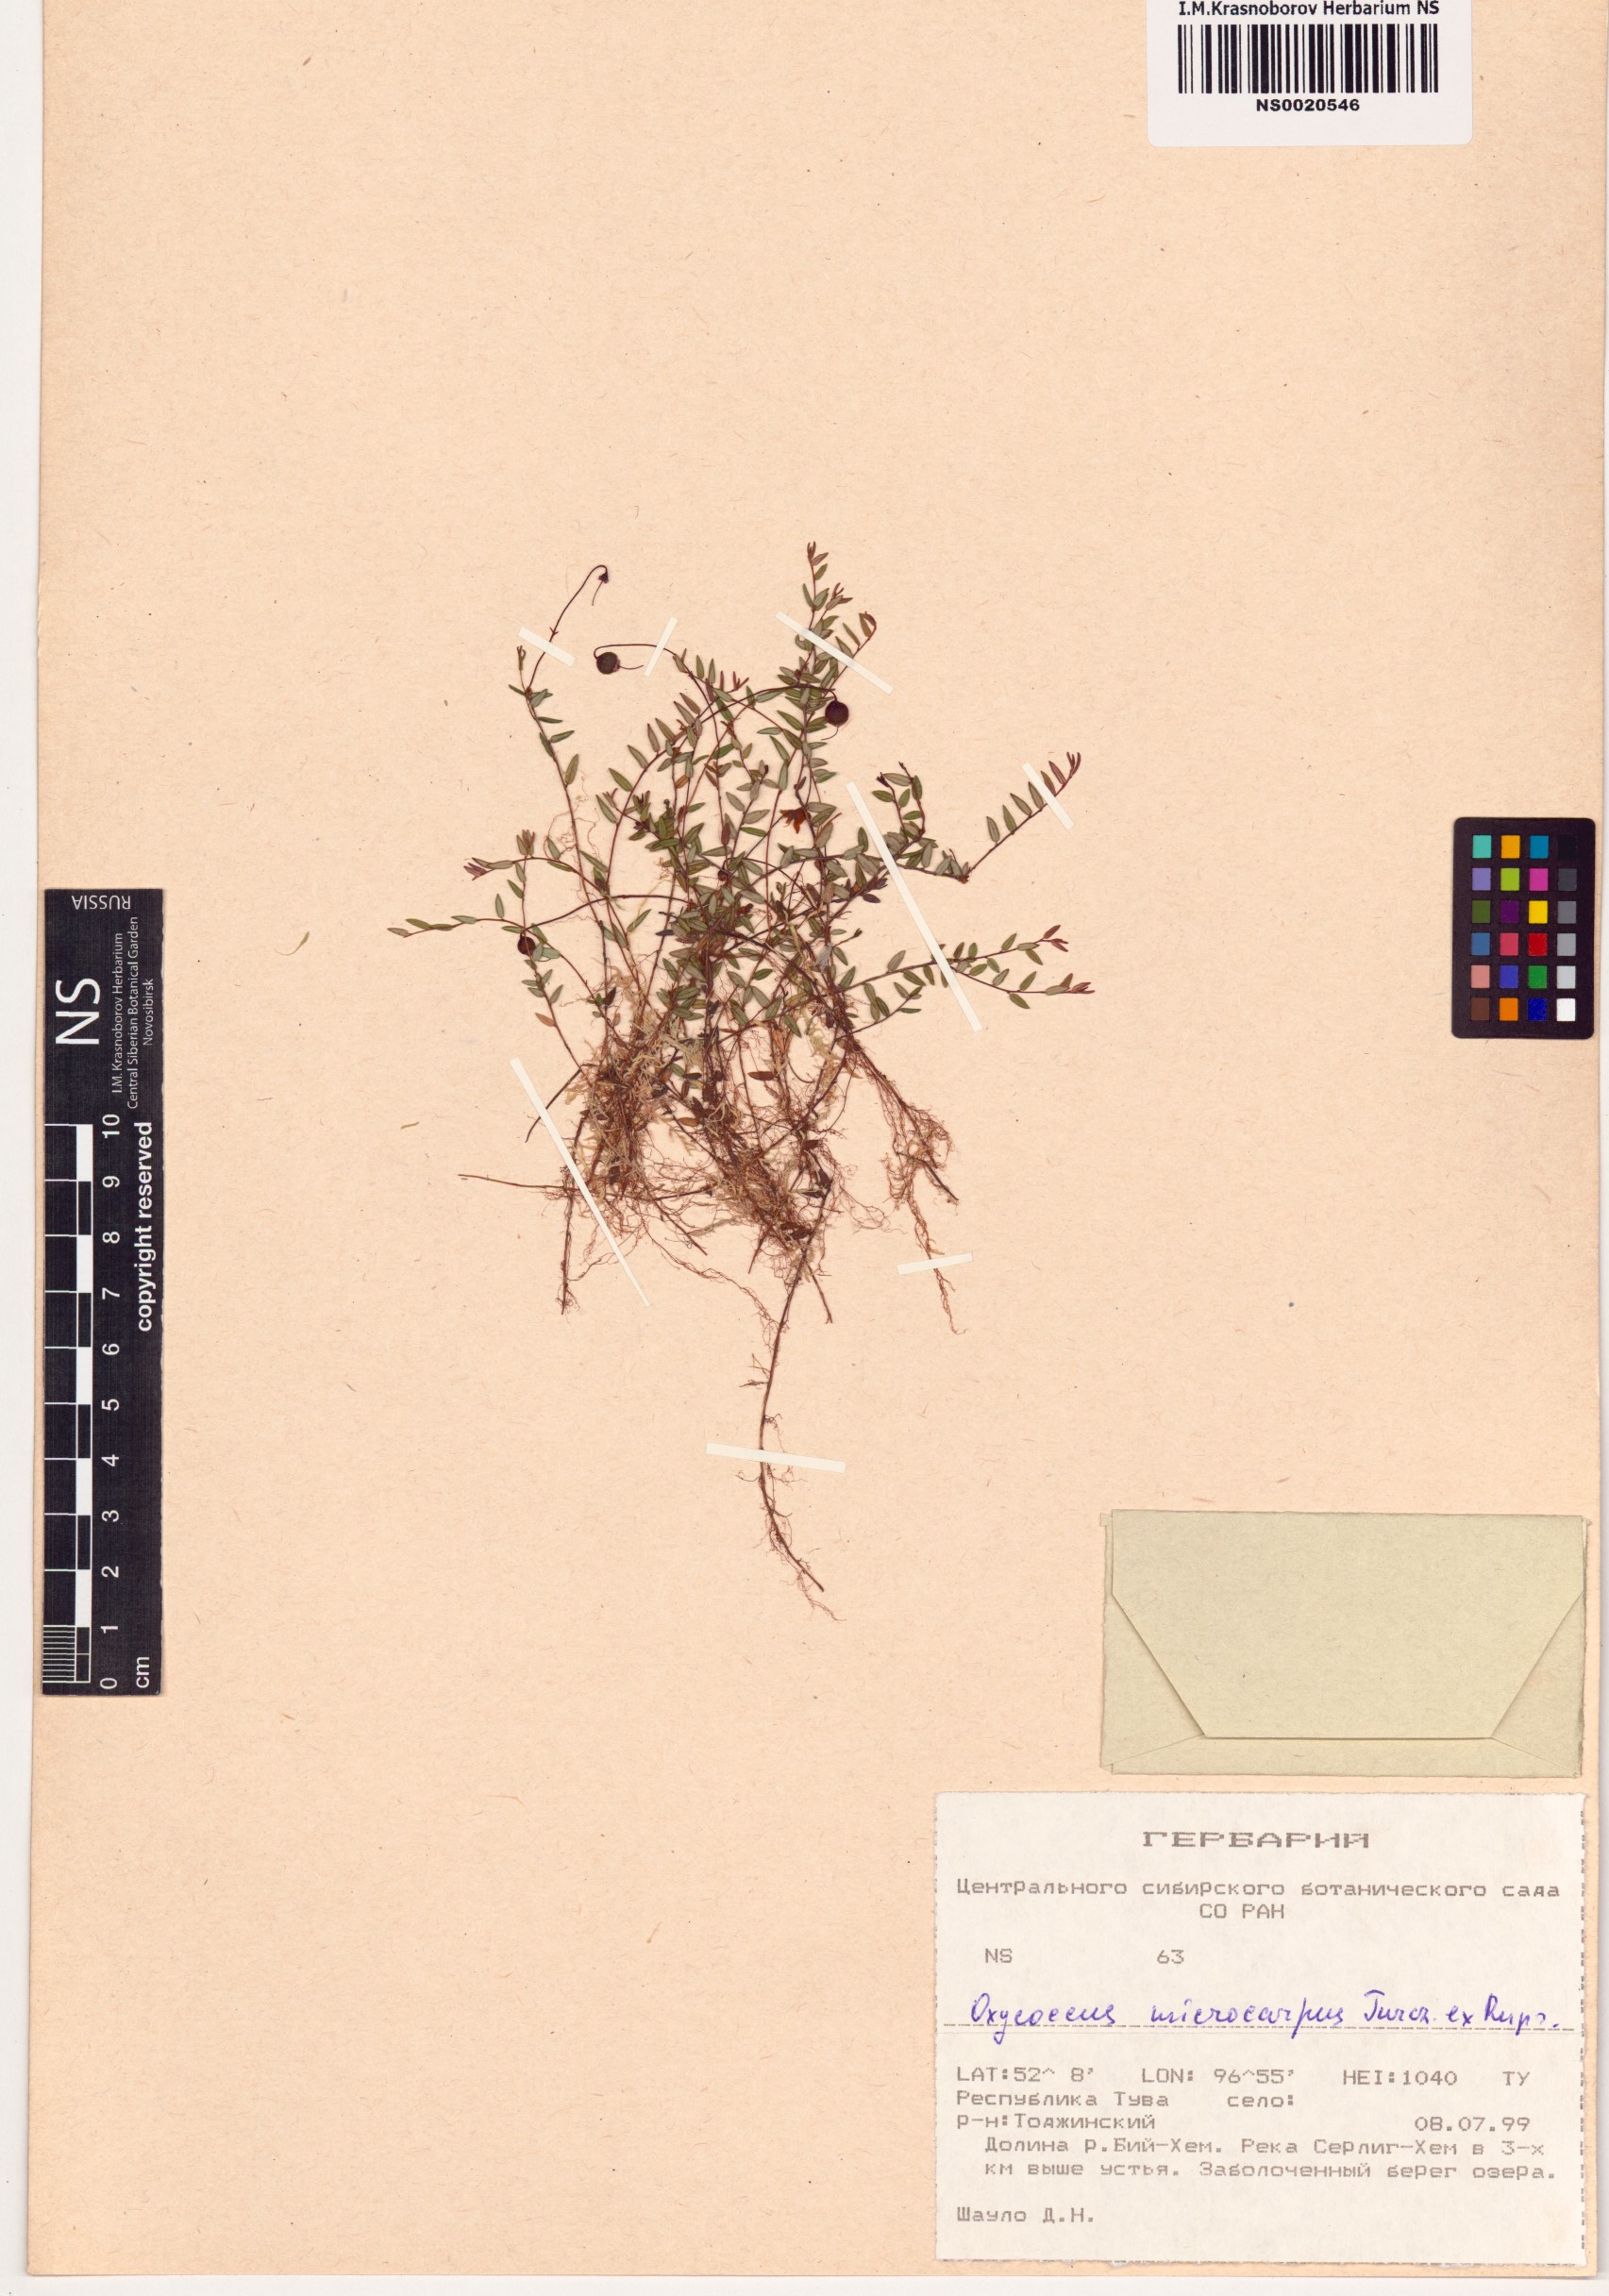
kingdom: Plantae
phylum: Tracheophyta
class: Magnoliopsida
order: Ericales
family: Ericaceae
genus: Vaccinium
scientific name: Vaccinium microcarpum
